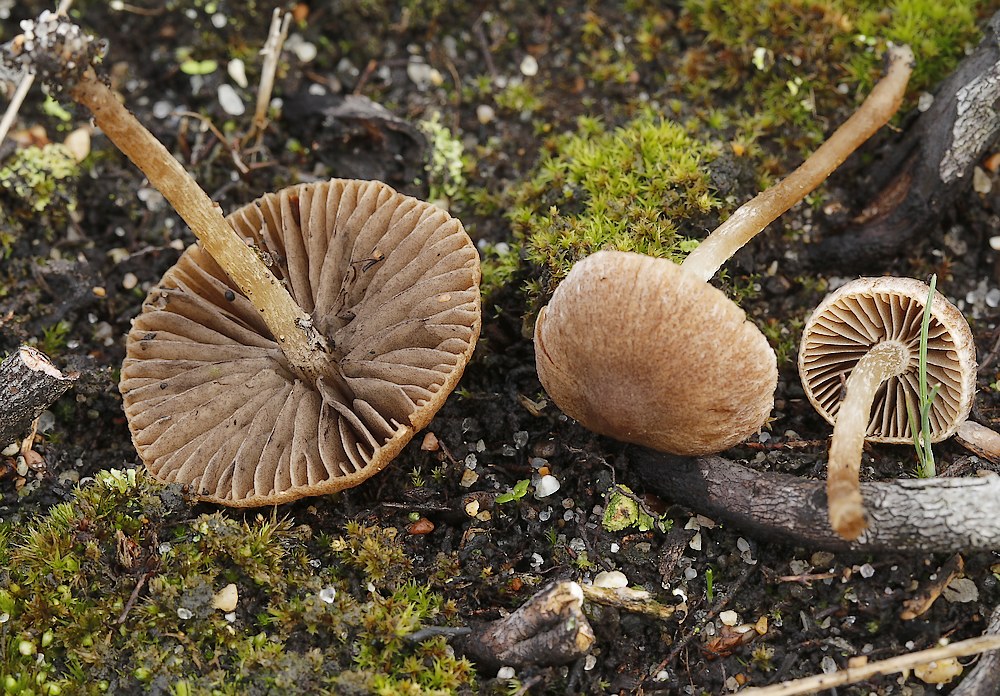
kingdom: Fungi
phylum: Basidiomycota
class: Agaricomycetes
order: Agaricales
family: Psathyrellaceae
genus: Psathyrella
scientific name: Psathyrella
